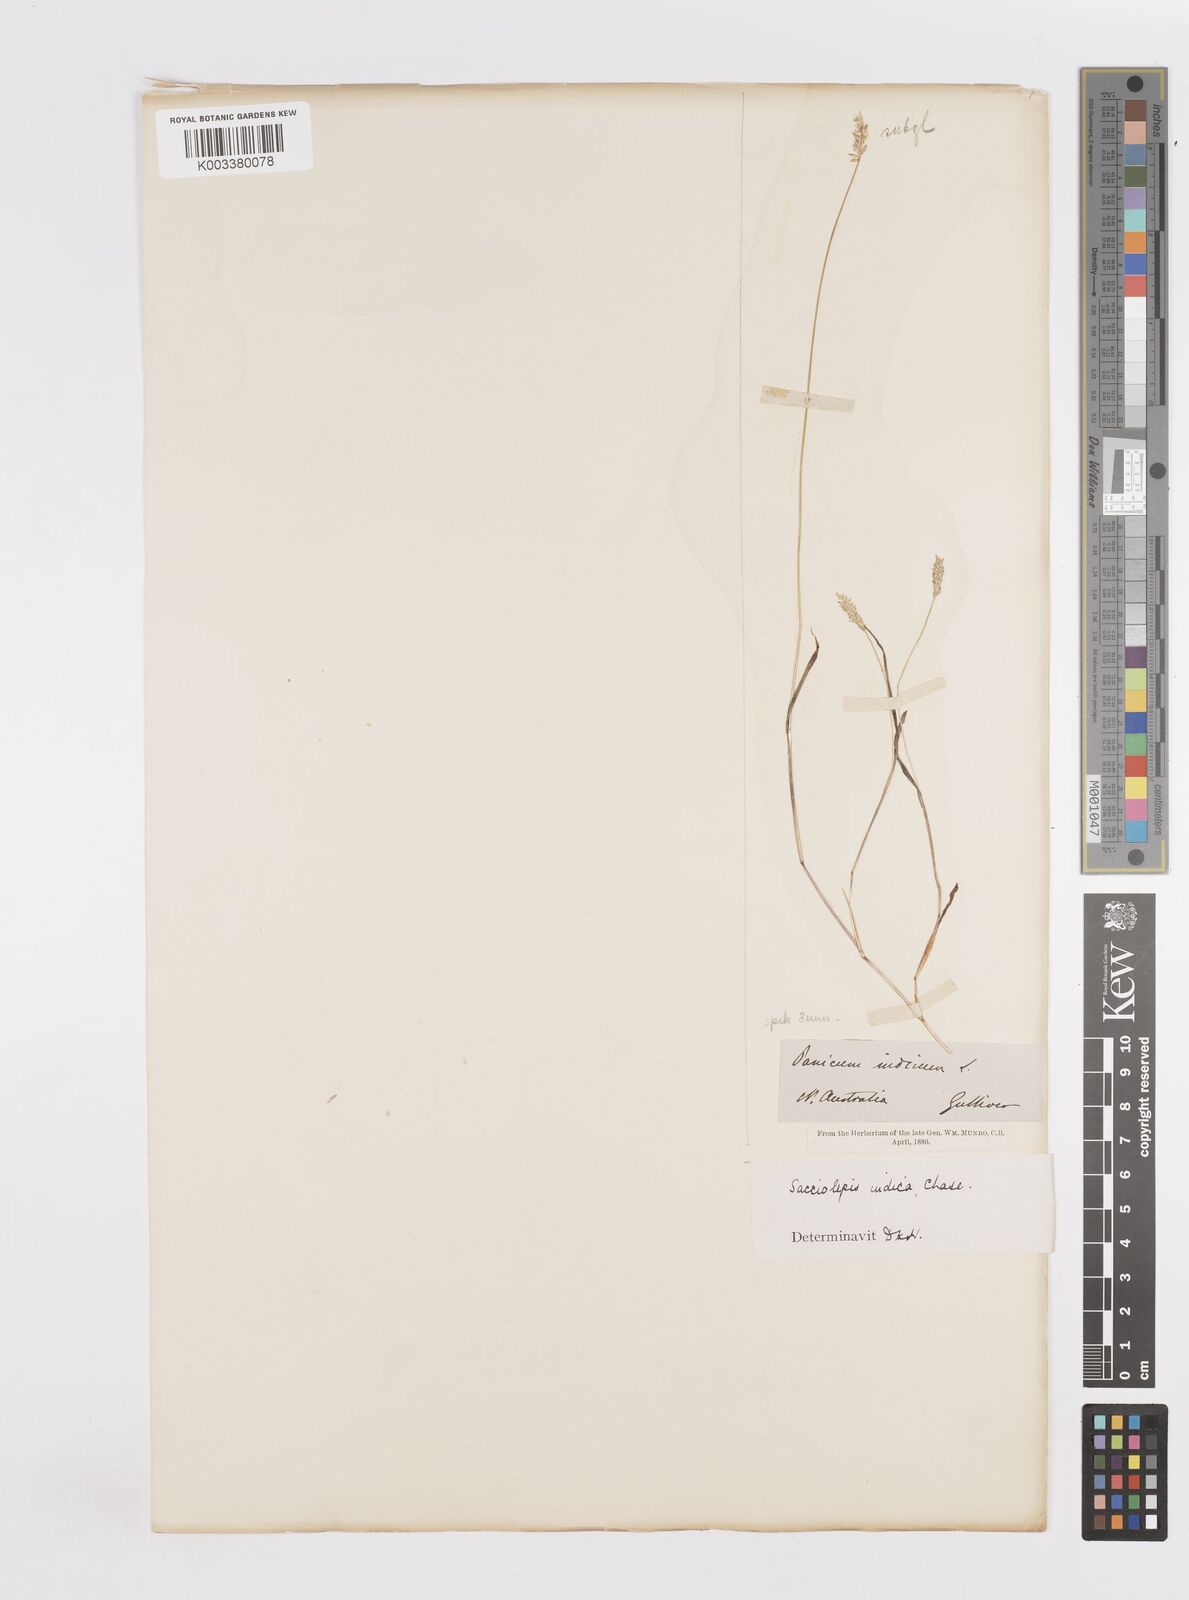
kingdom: Plantae
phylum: Tracheophyta
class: Liliopsida
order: Poales
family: Poaceae
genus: Sacciolepis
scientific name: Sacciolepis indica
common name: Glenwoodgrass
